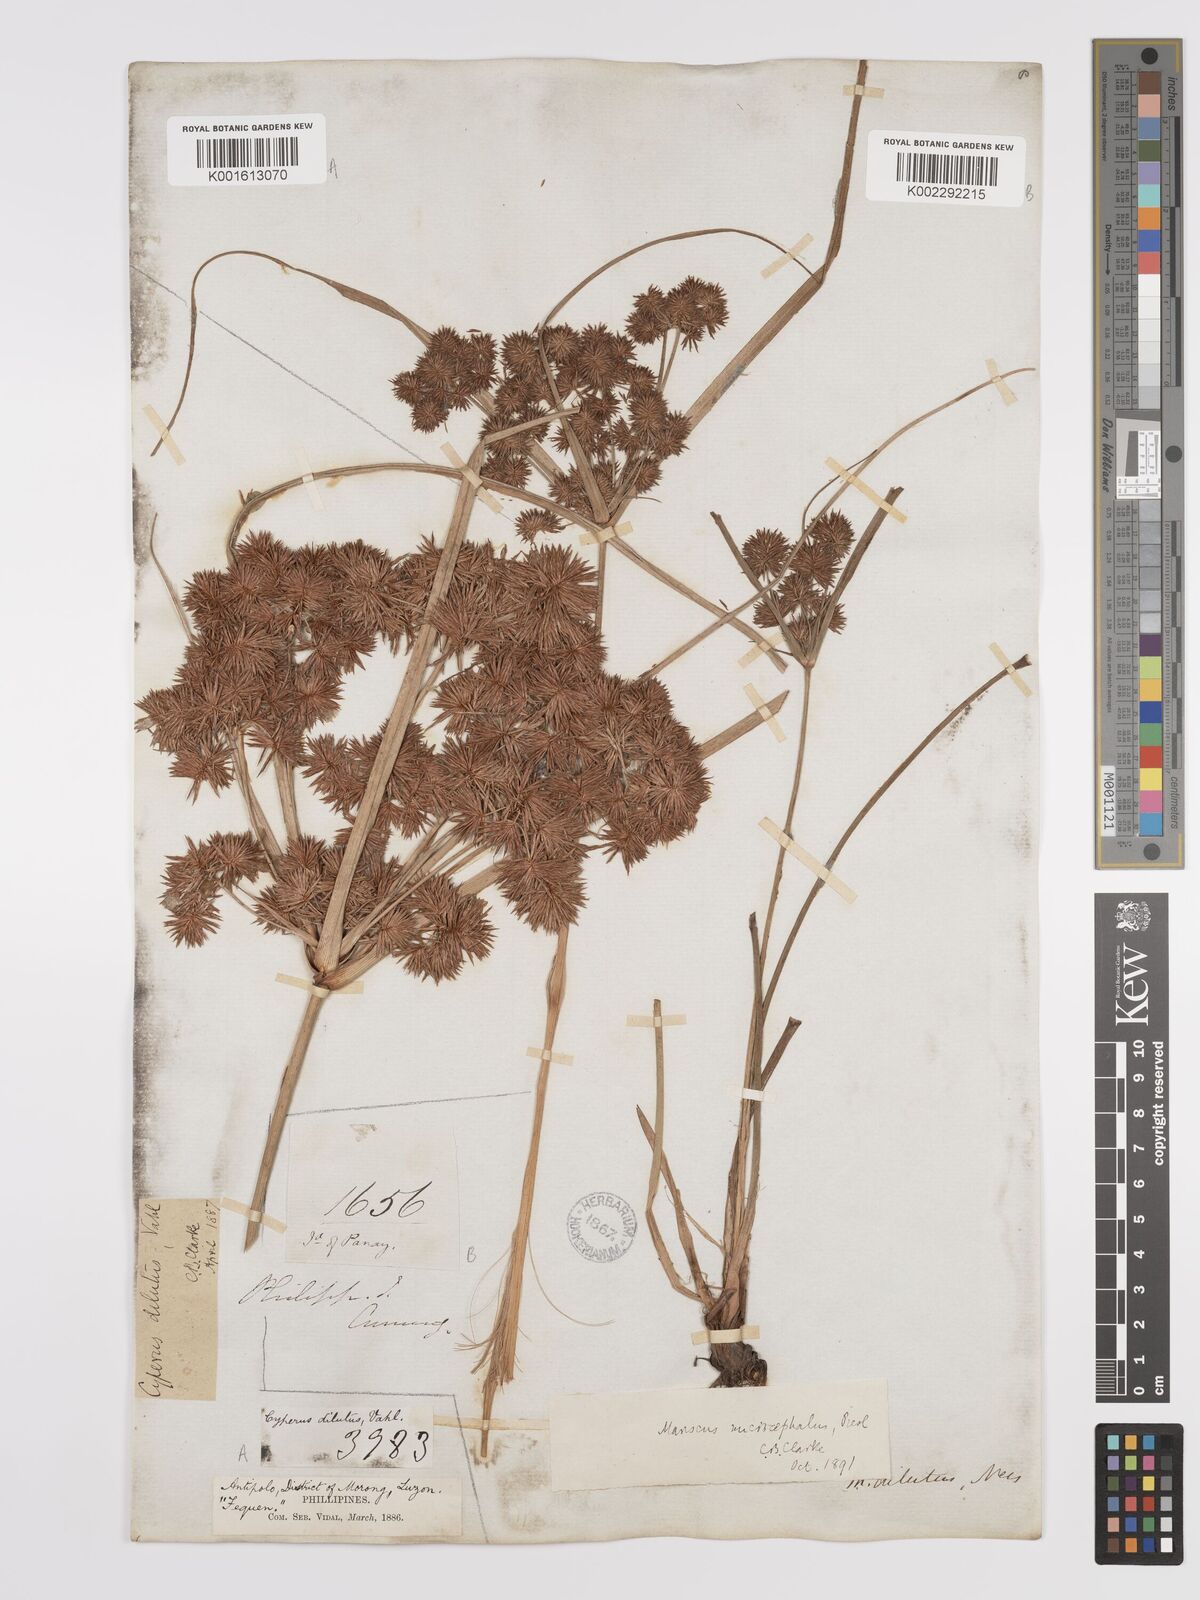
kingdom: Plantae
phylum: Tracheophyta
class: Liliopsida
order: Poales
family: Cyperaceae
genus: Cyperus
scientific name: Cyperus compactus
